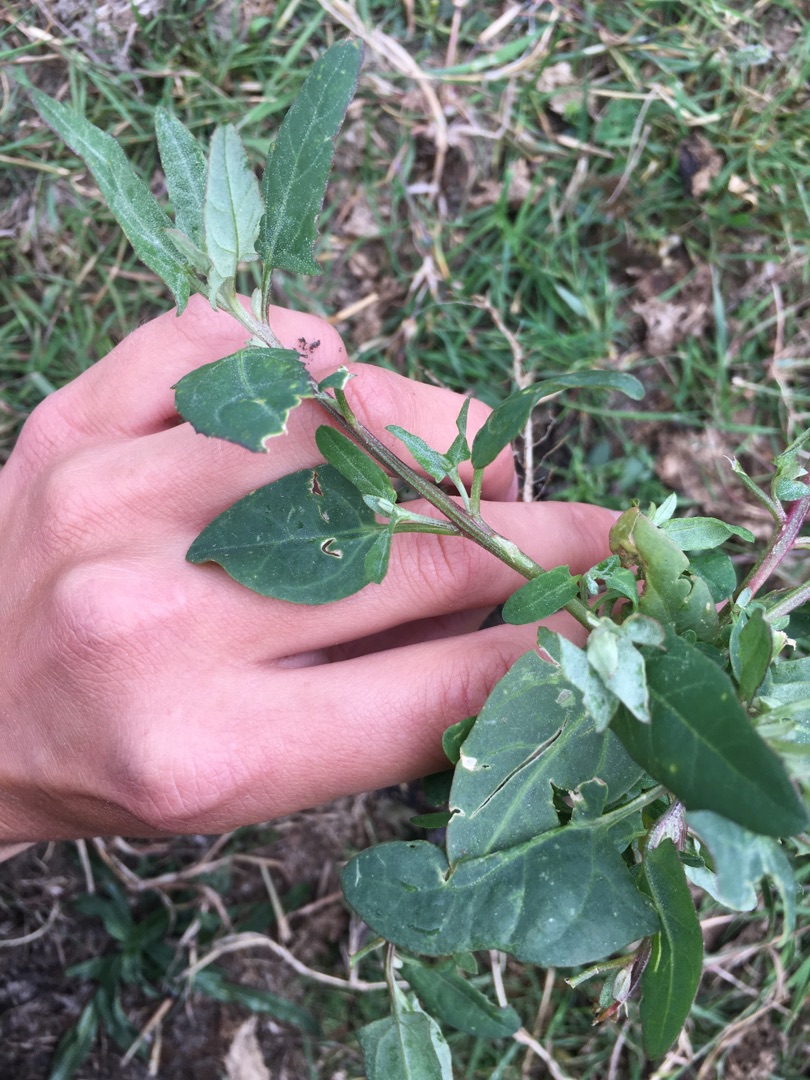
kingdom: Plantae
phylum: Tracheophyta
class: Magnoliopsida
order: Caryophyllales
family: Amaranthaceae
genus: Atriplex
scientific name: Atriplex prostrata
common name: Spyd-mælde
